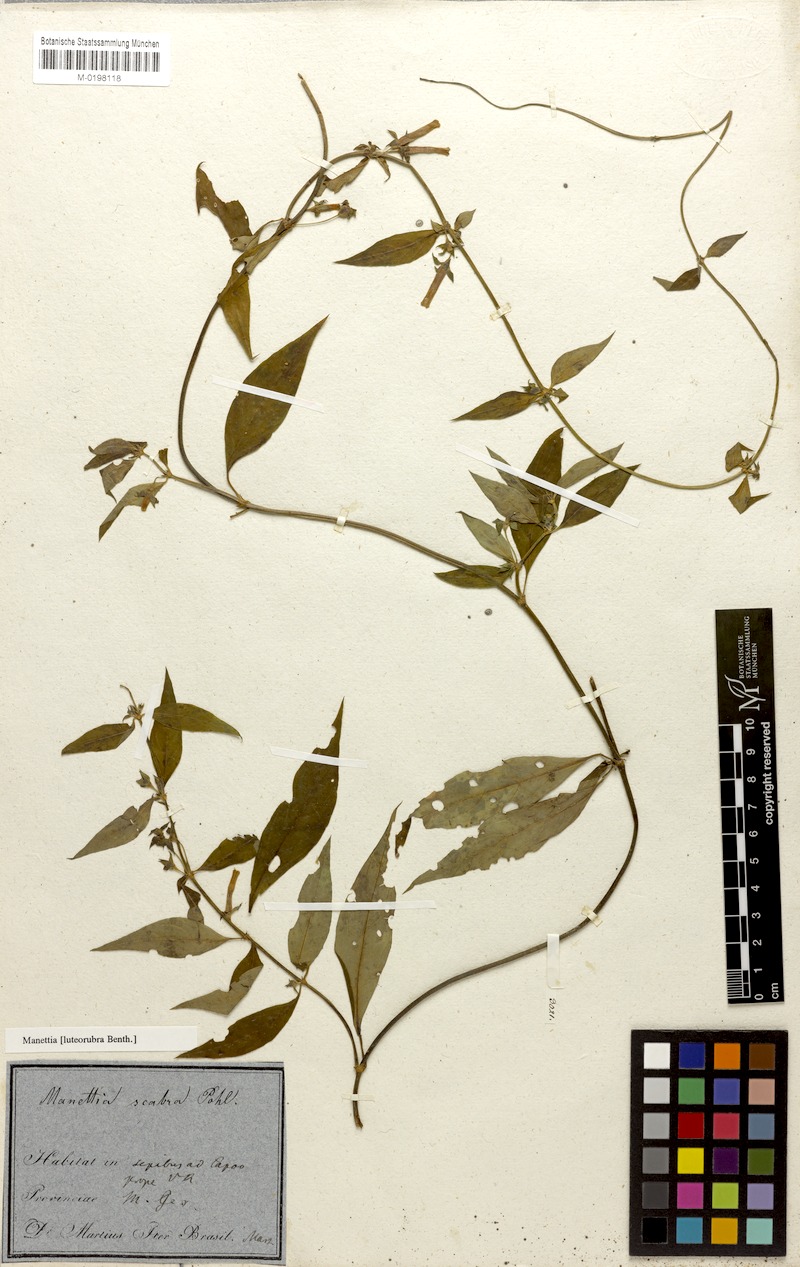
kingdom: Plantae
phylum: Tracheophyta
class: Magnoliopsida
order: Gentianales
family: Rubiaceae
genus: Manettia
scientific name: Manettia luteorubra
